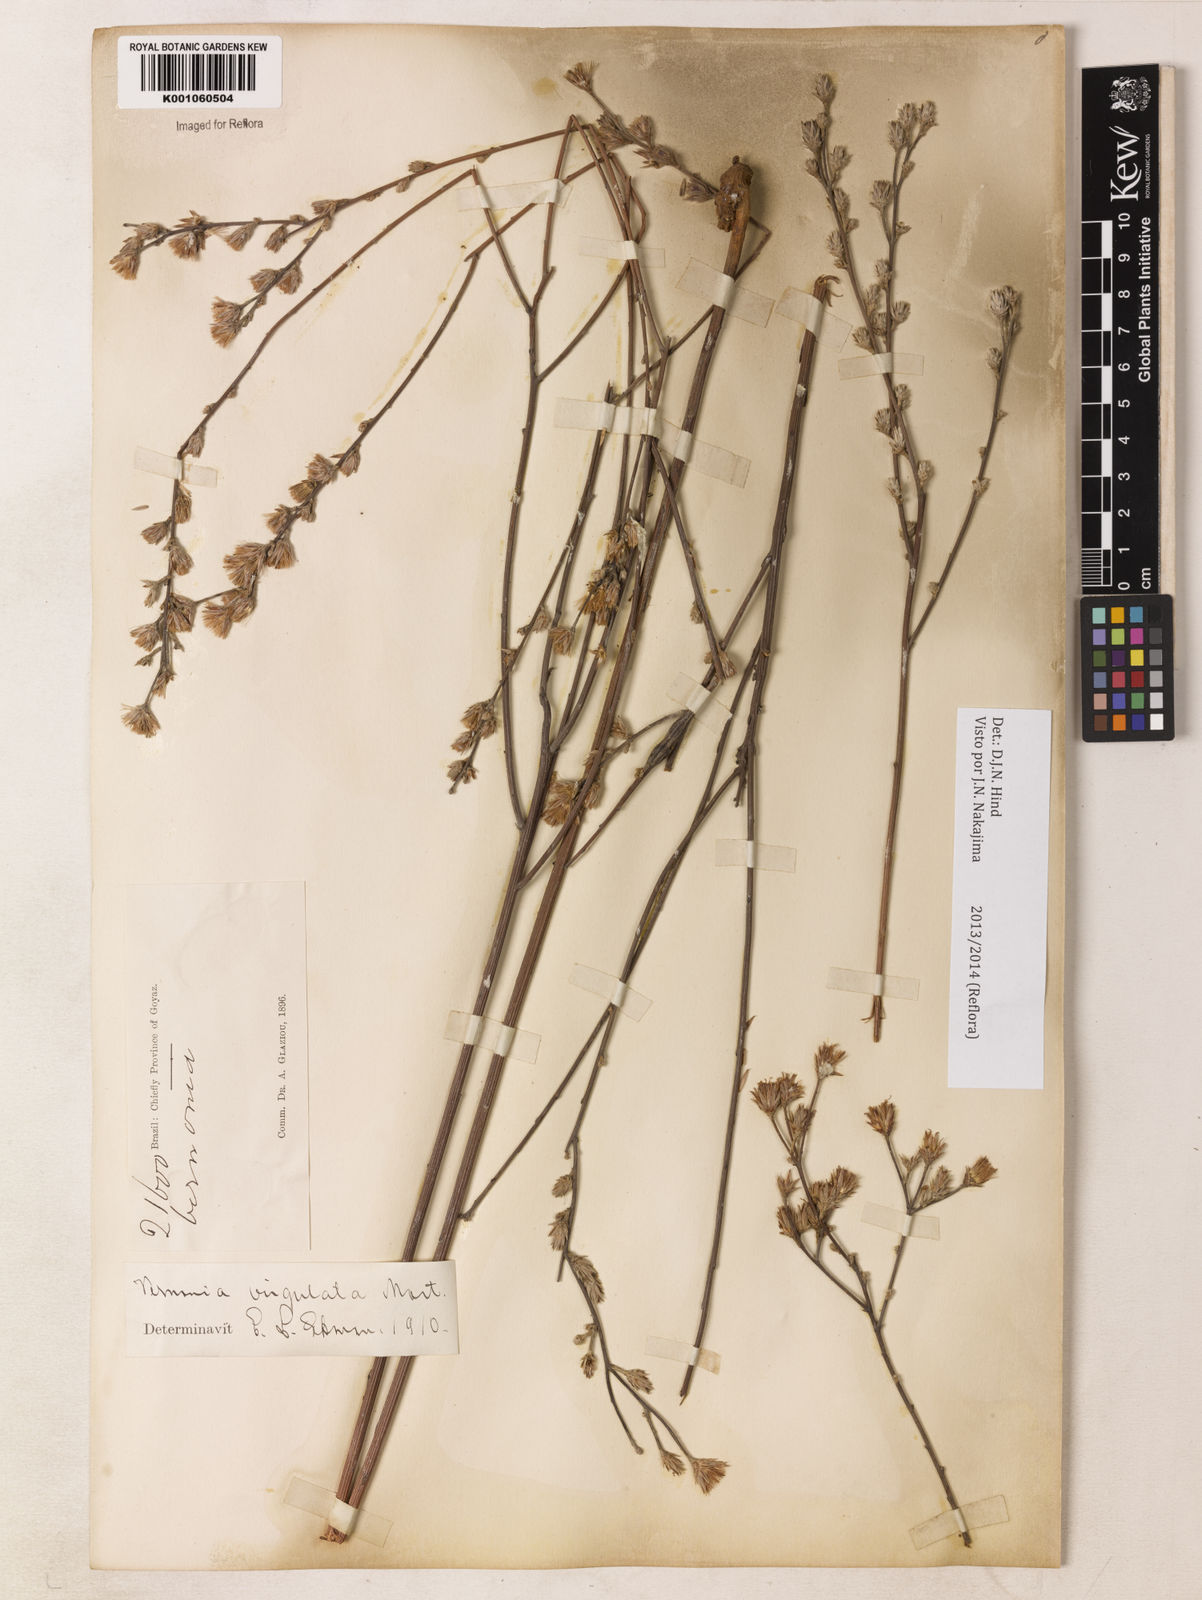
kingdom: Plantae
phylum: Tracheophyta
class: Magnoliopsida
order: Asterales
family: Asteraceae
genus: Lessingianthus
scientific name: Lessingianthus virgulatus
